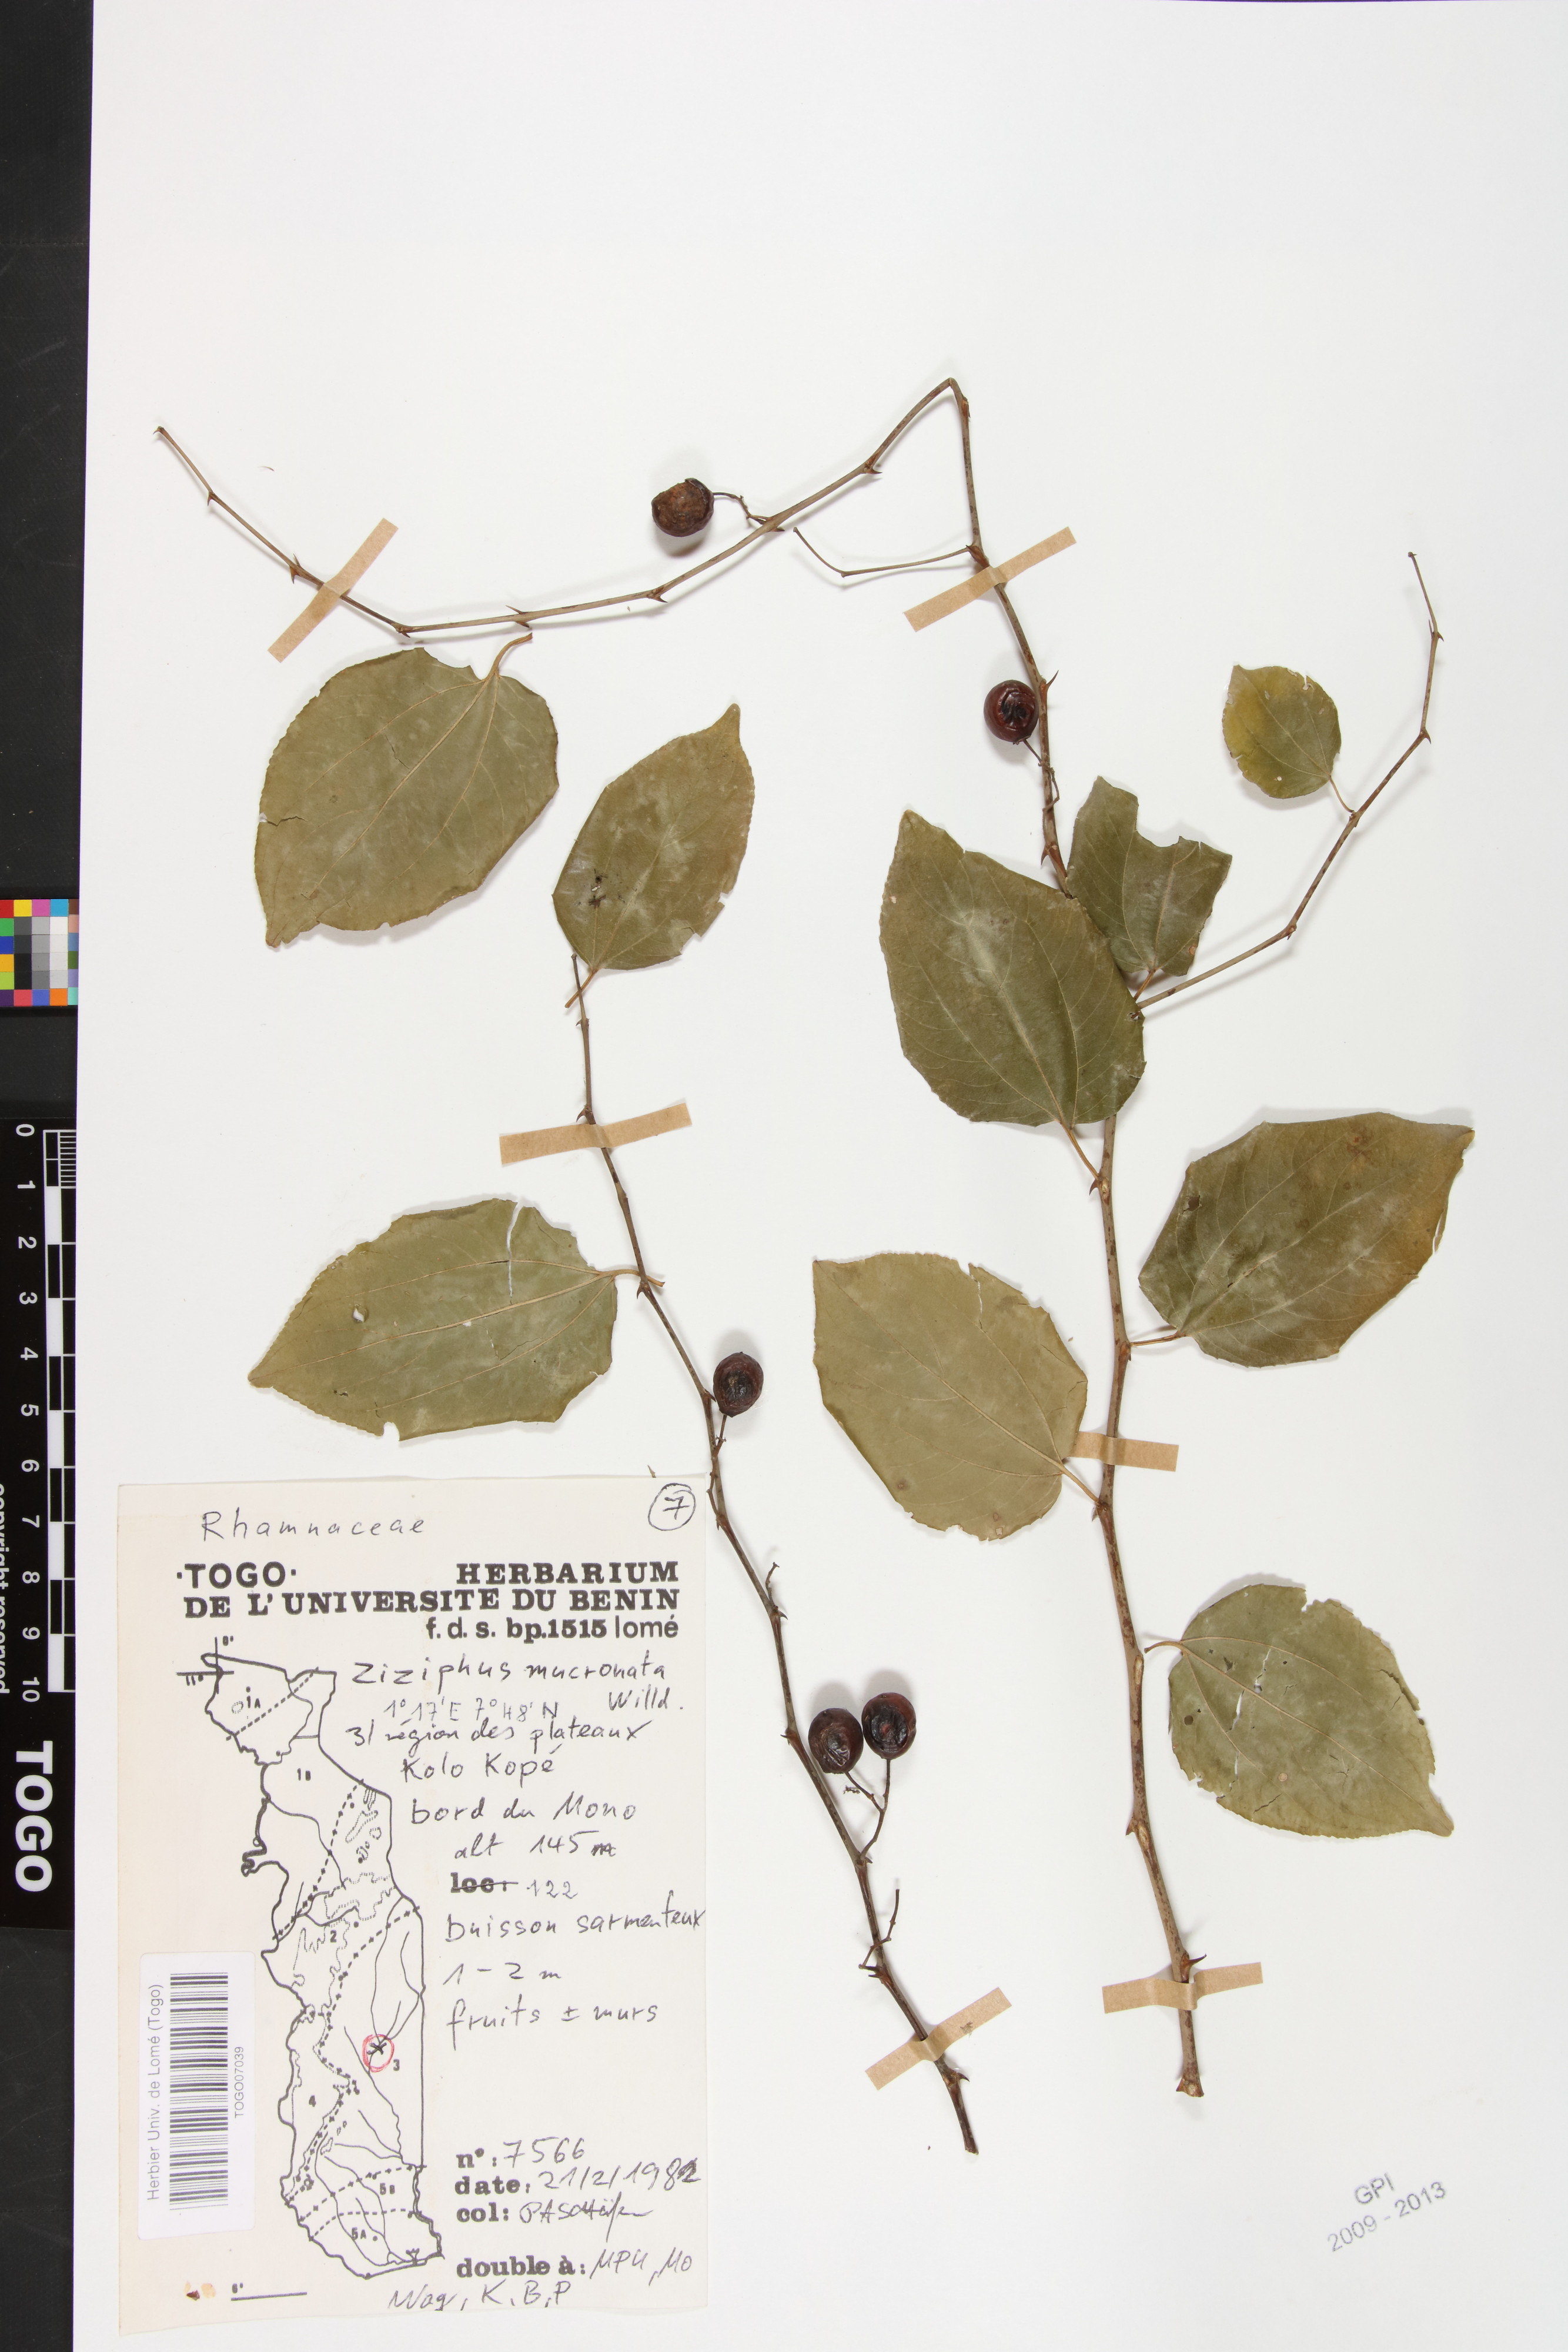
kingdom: Plantae
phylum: Tracheophyta
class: Magnoliopsida
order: Rosales
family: Rhamnaceae
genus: Ziziphus
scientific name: Ziziphus mucronata
